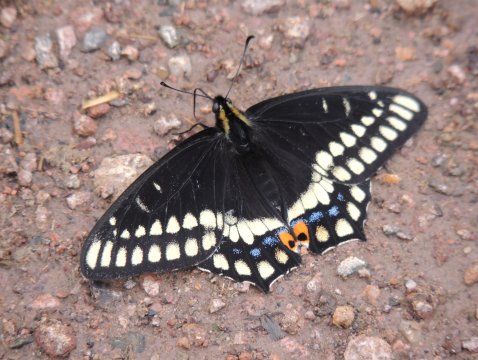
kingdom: Animalia
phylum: Arthropoda
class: Insecta
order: Lepidoptera
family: Papilionidae
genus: Papilio
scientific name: Papilio indra
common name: Indra Swallowtail
